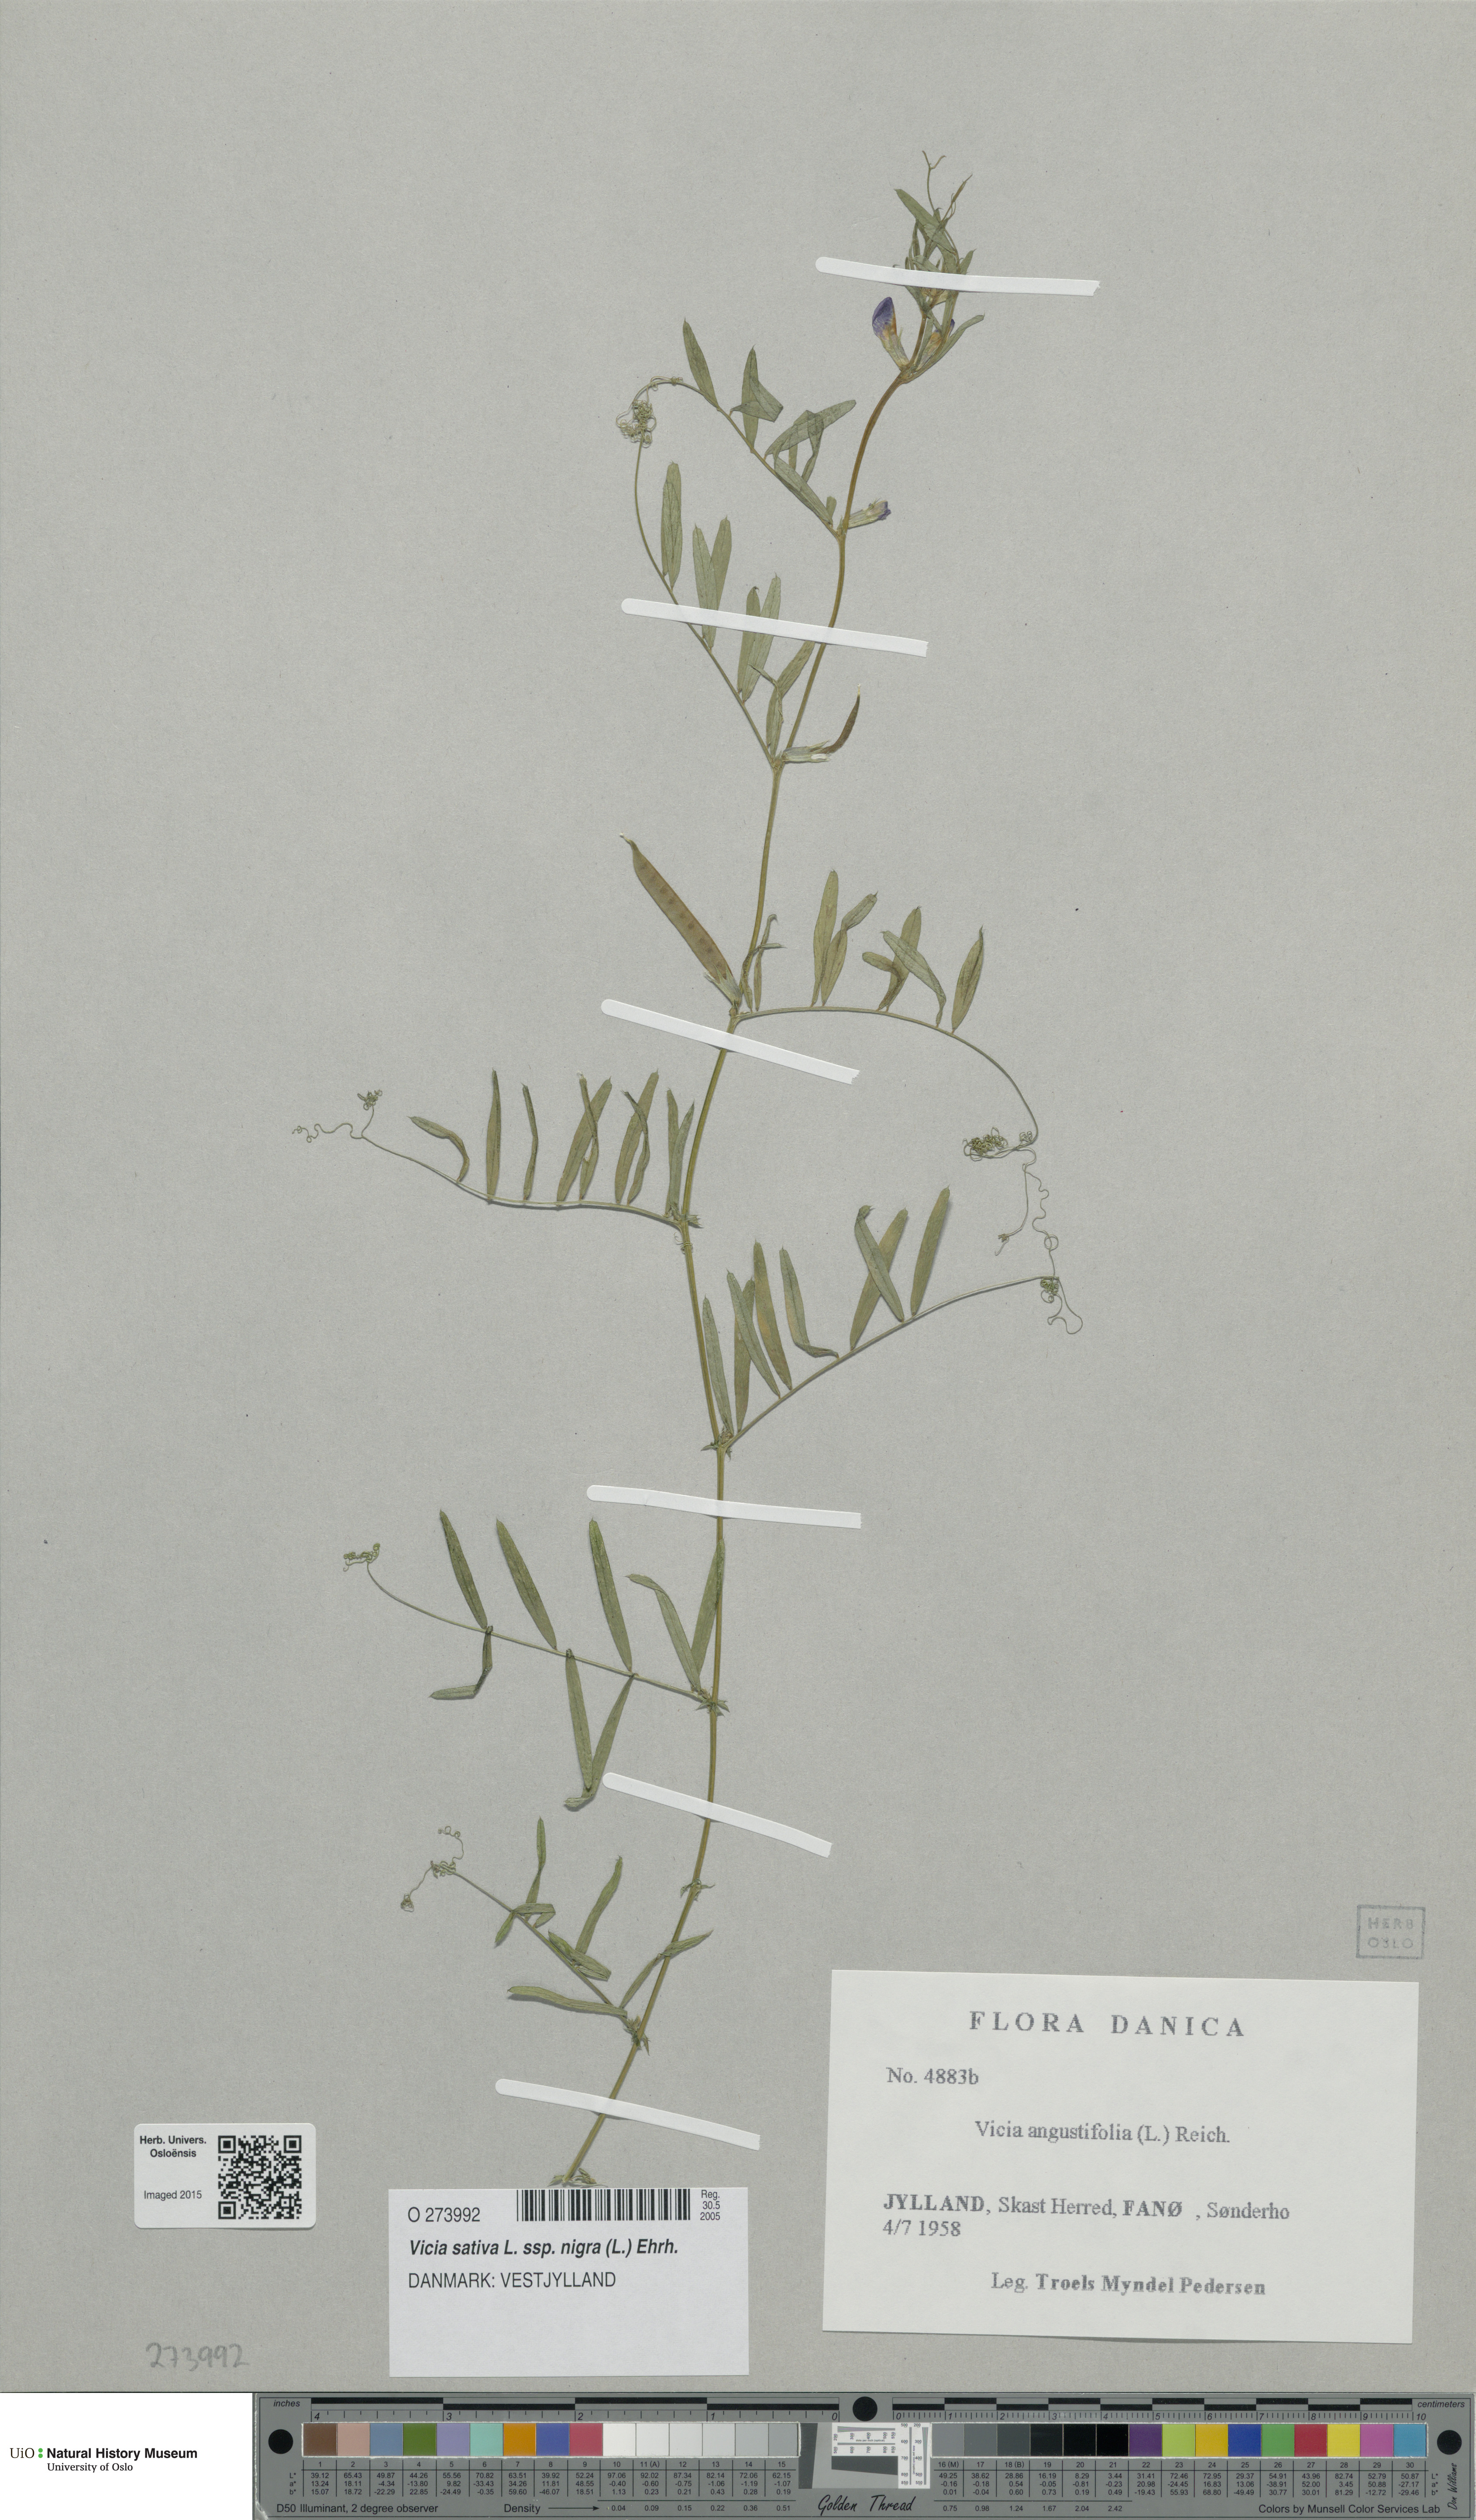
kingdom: Plantae
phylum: Tracheophyta
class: Magnoliopsida
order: Fabales
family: Fabaceae
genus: Vicia
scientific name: Vicia sativa
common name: Garden vetch
